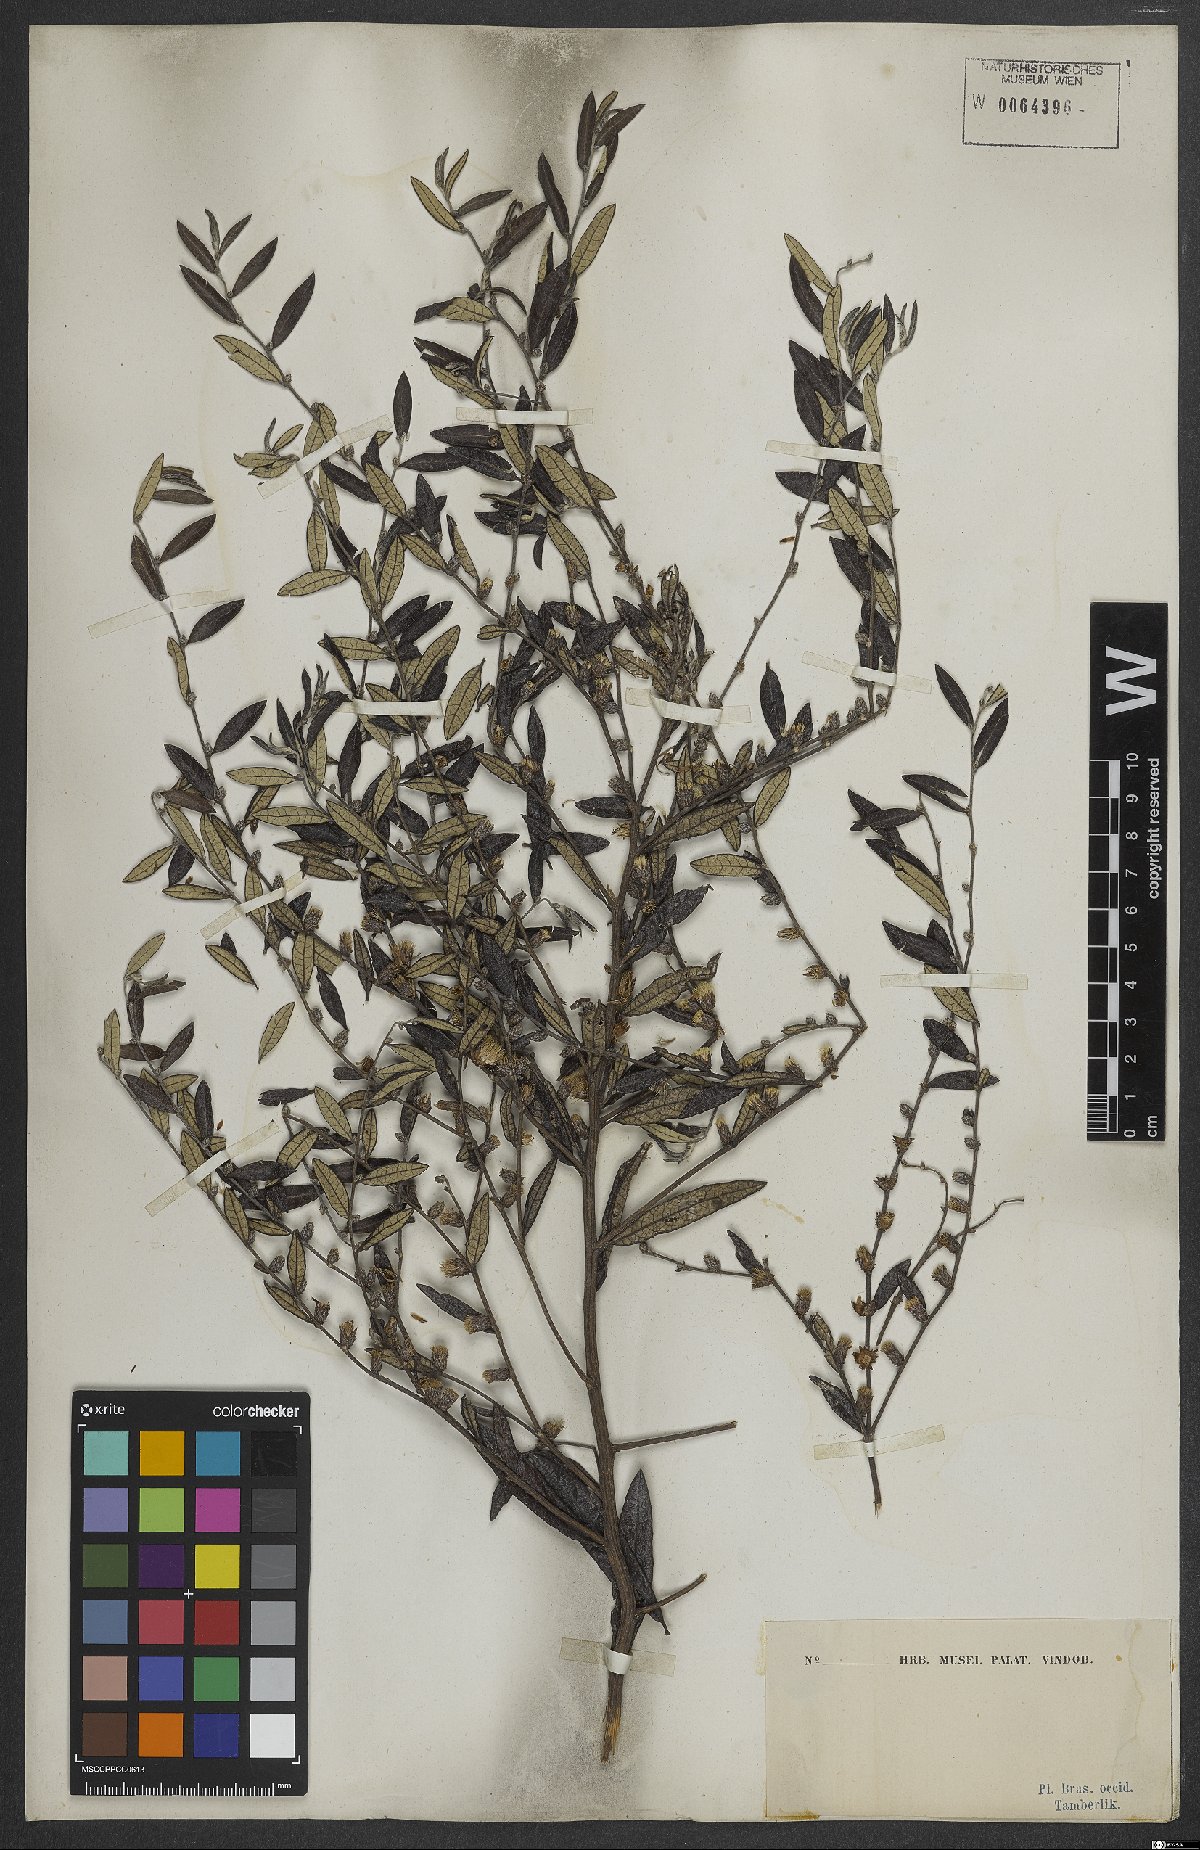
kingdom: Plantae
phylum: Tracheophyta
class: Magnoliopsida
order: Asterales
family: Asteraceae
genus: Lessingianthus
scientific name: Lessingianthus elegans
